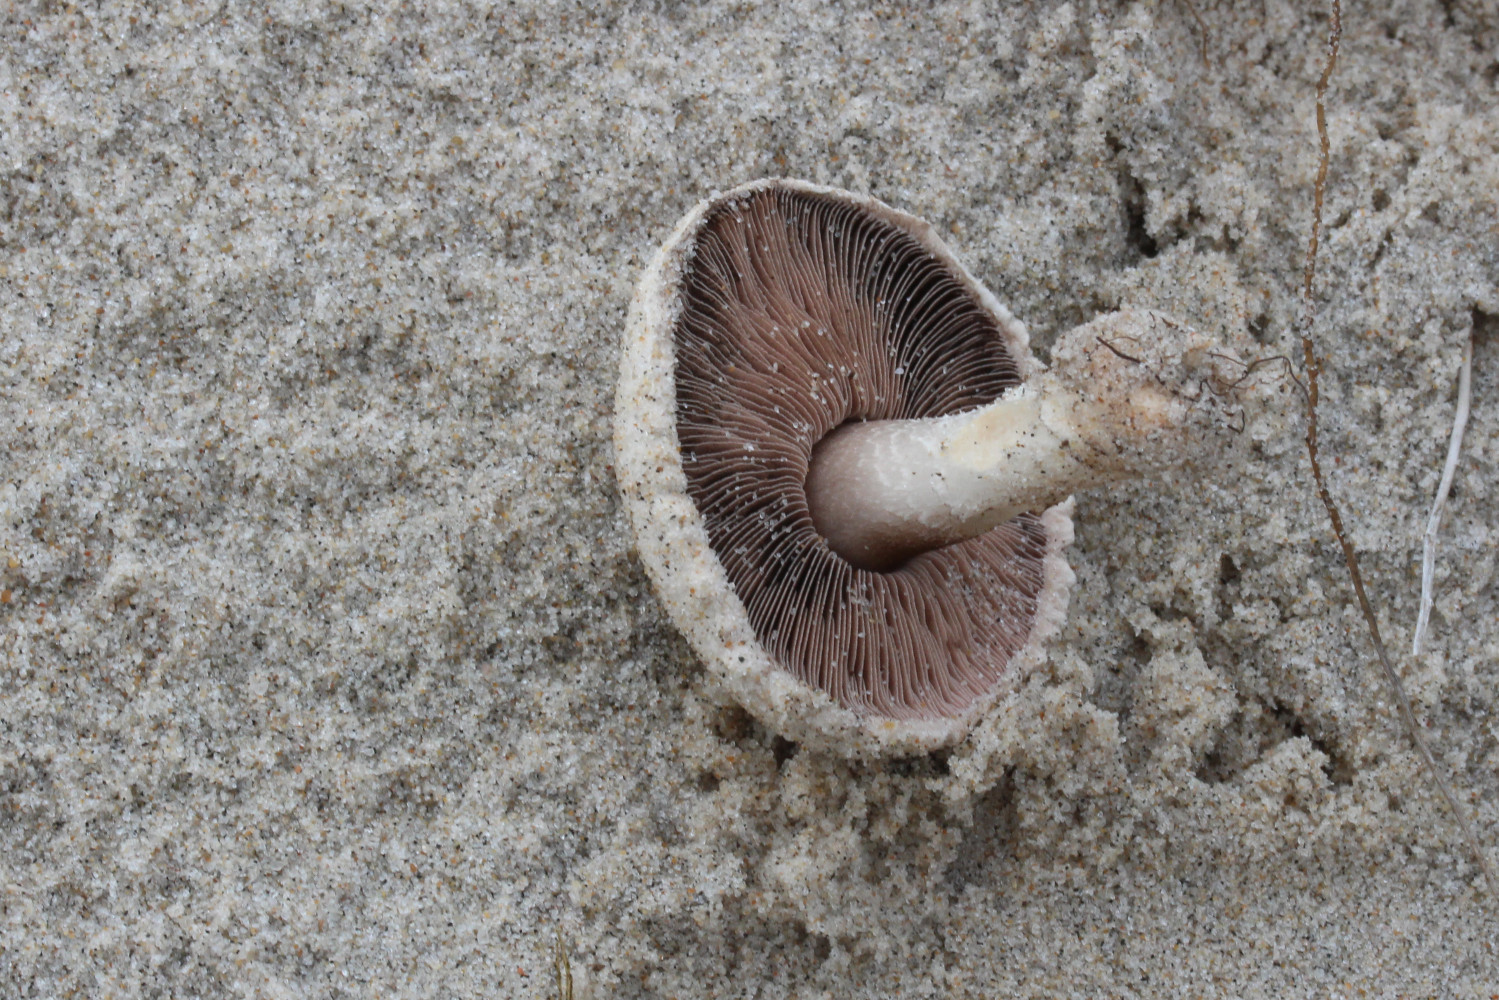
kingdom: Fungi
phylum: Basidiomycota
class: Agaricomycetes
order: Agaricales
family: Agaricaceae
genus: Agaricus
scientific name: Agaricus campestris
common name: mark-champignon
